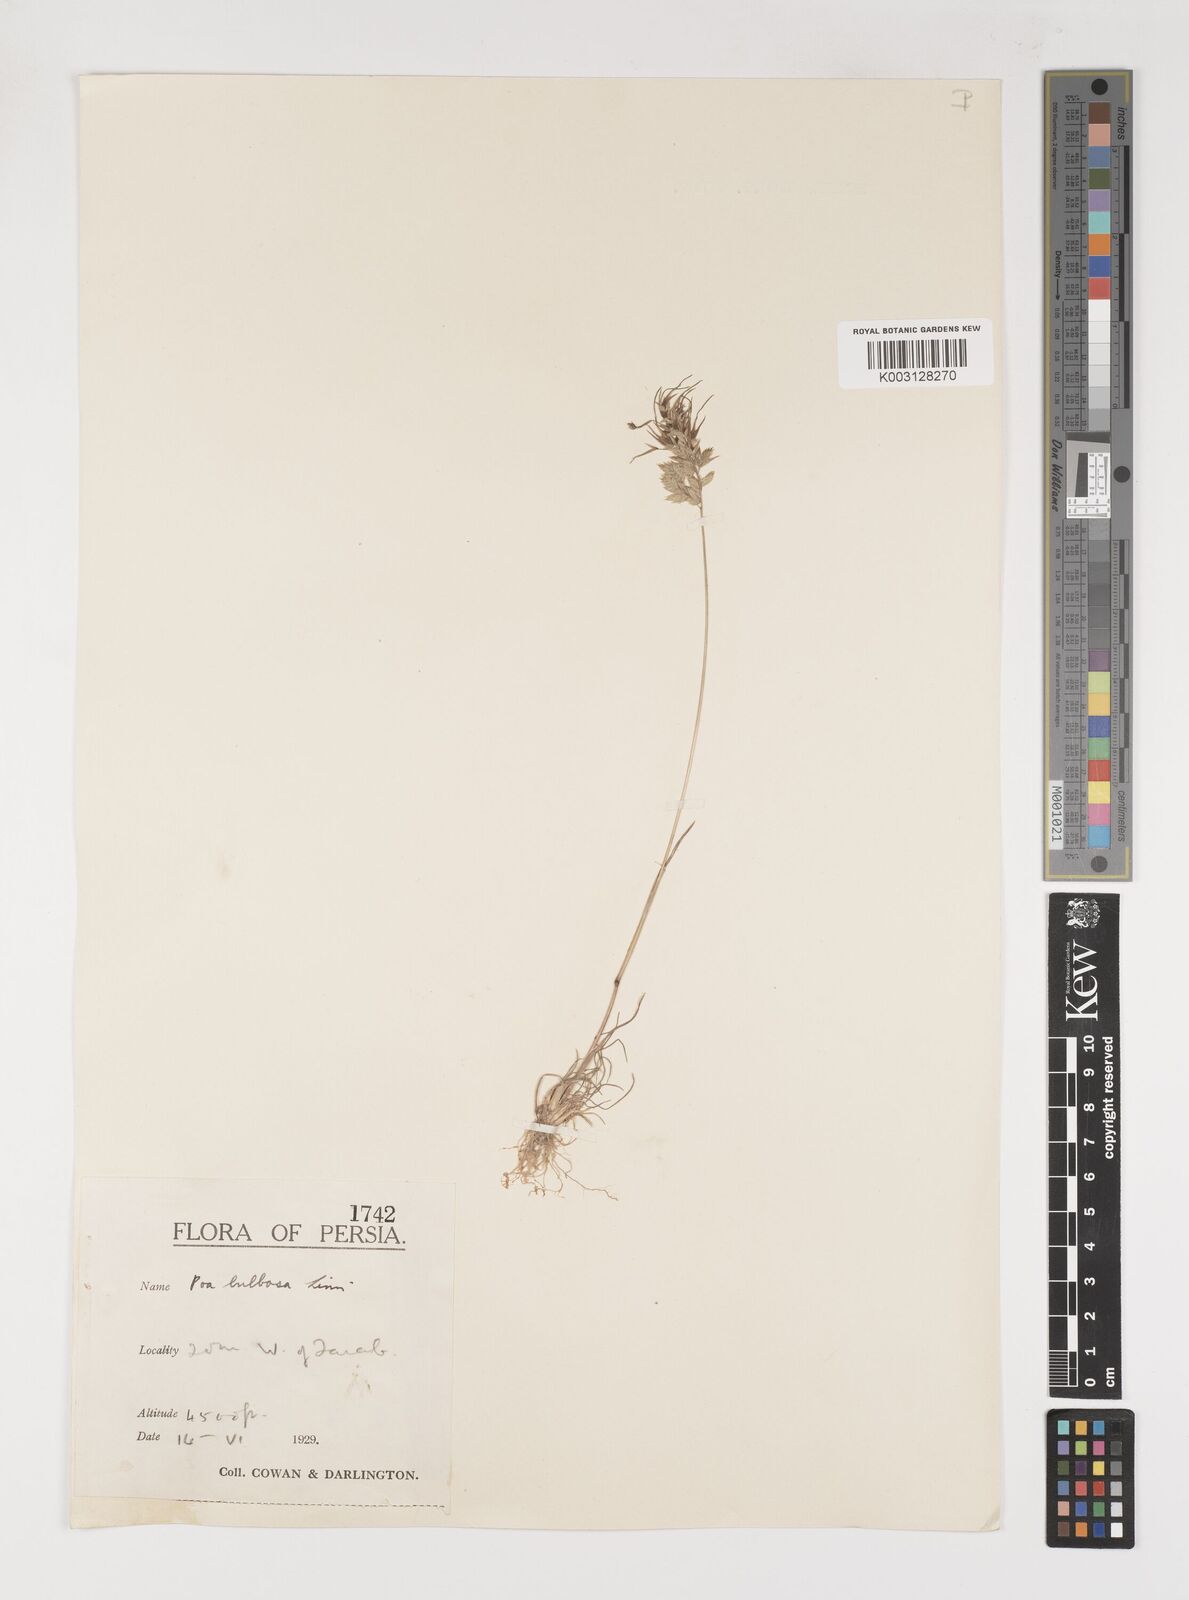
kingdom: Plantae
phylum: Tracheophyta
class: Liliopsida
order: Poales
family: Poaceae
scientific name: Poaceae
